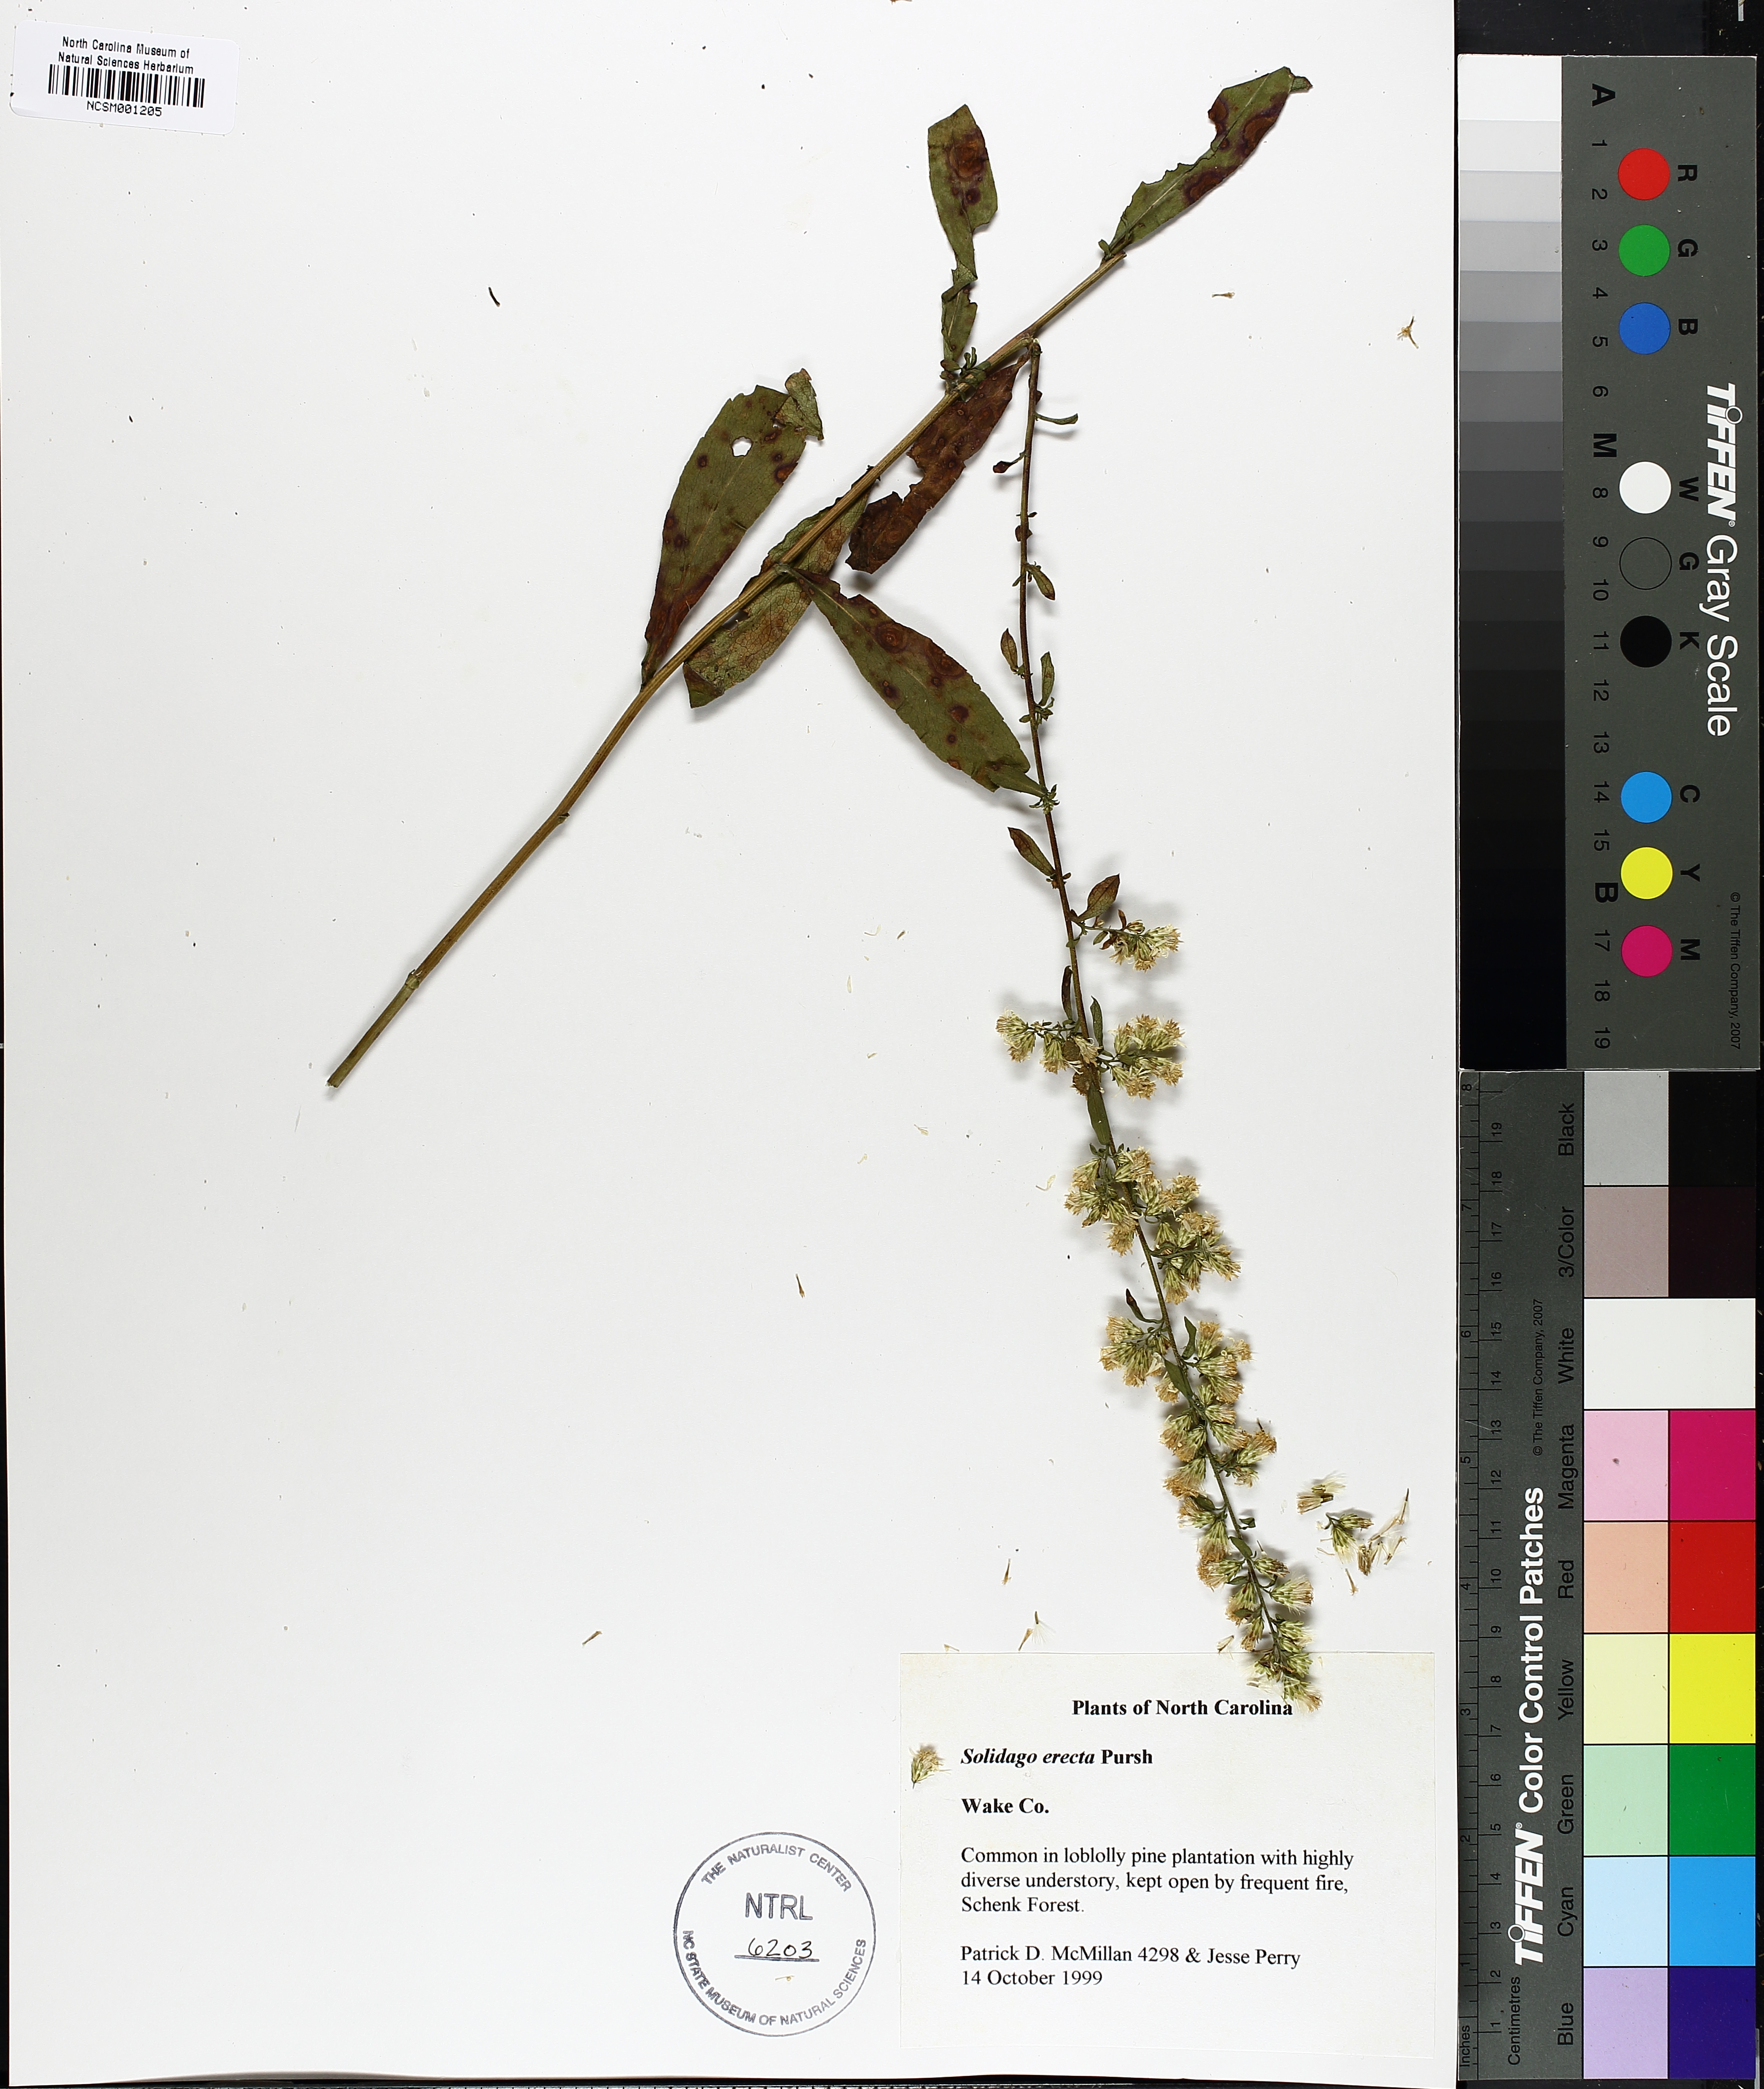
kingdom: Plantae
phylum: Tracheophyta
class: Magnoliopsida
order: Asterales
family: Asteraceae
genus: Solidago
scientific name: Solidago erecta
